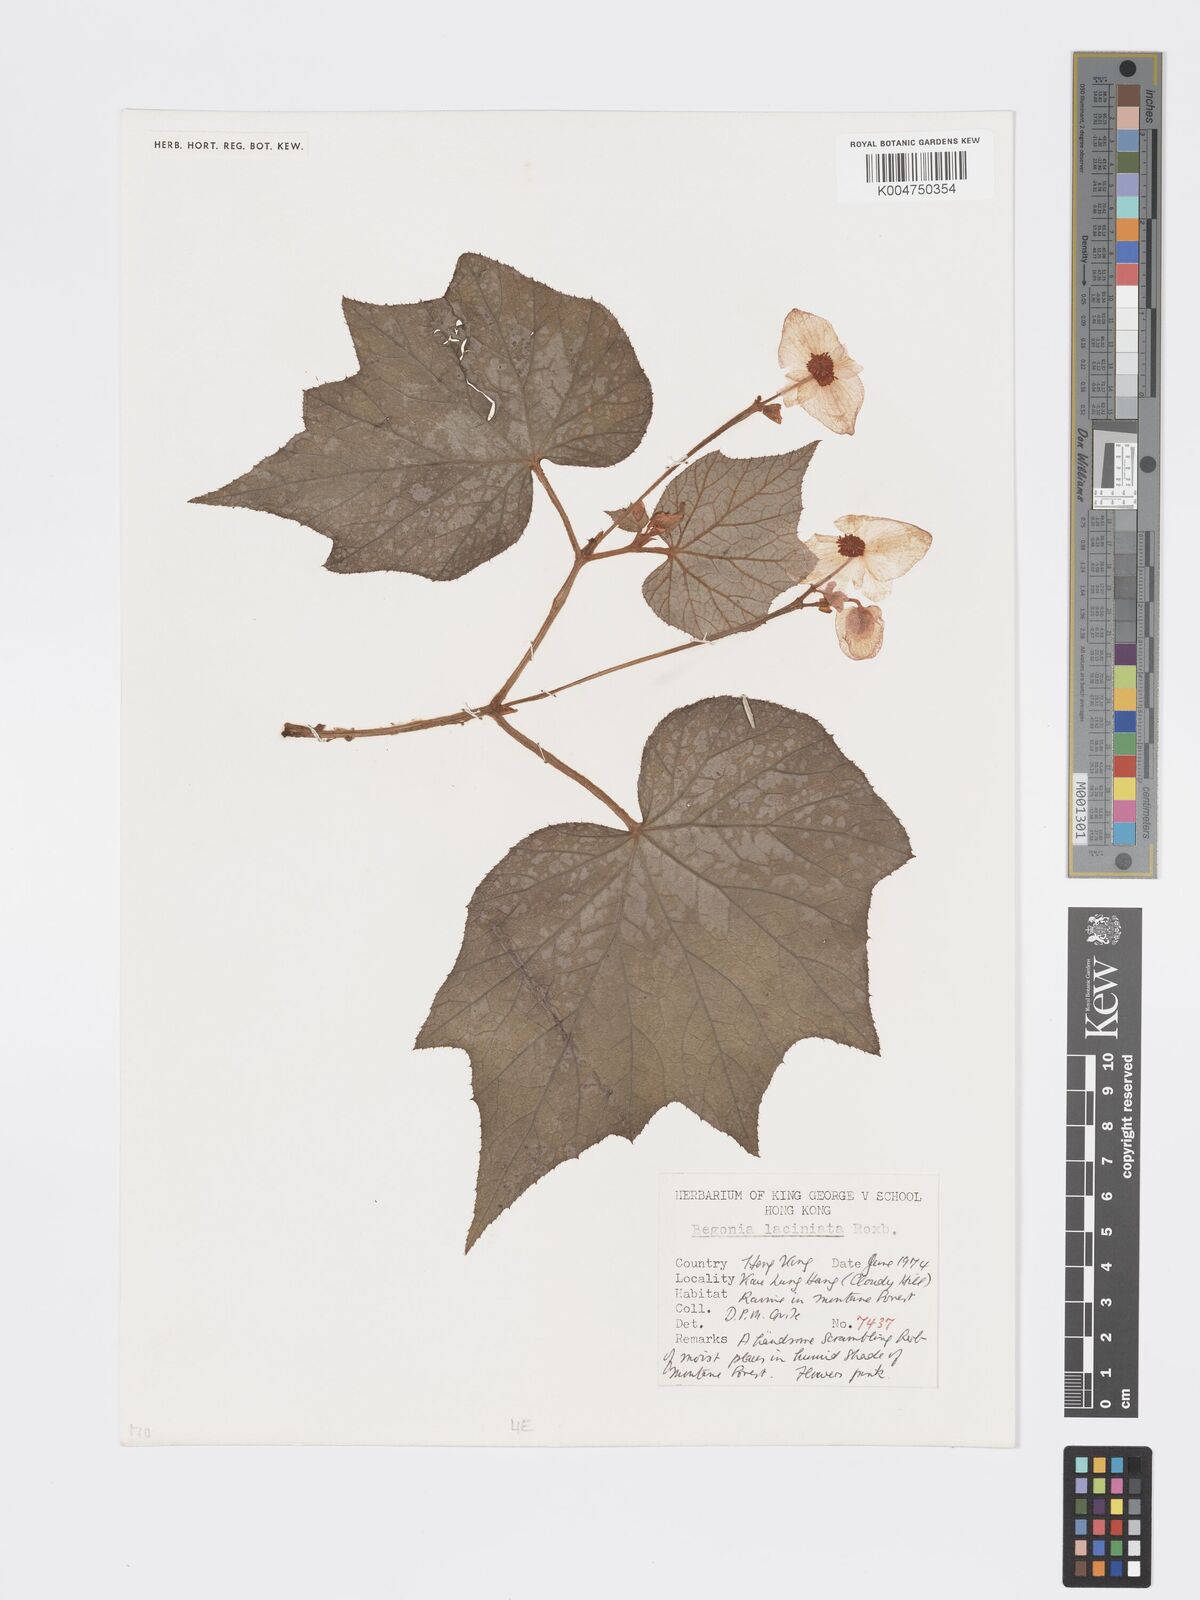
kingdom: Plantae
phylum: Tracheophyta
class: Magnoliopsida
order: Cucurbitales
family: Begoniaceae
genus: Begonia
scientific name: Begonia palmata
